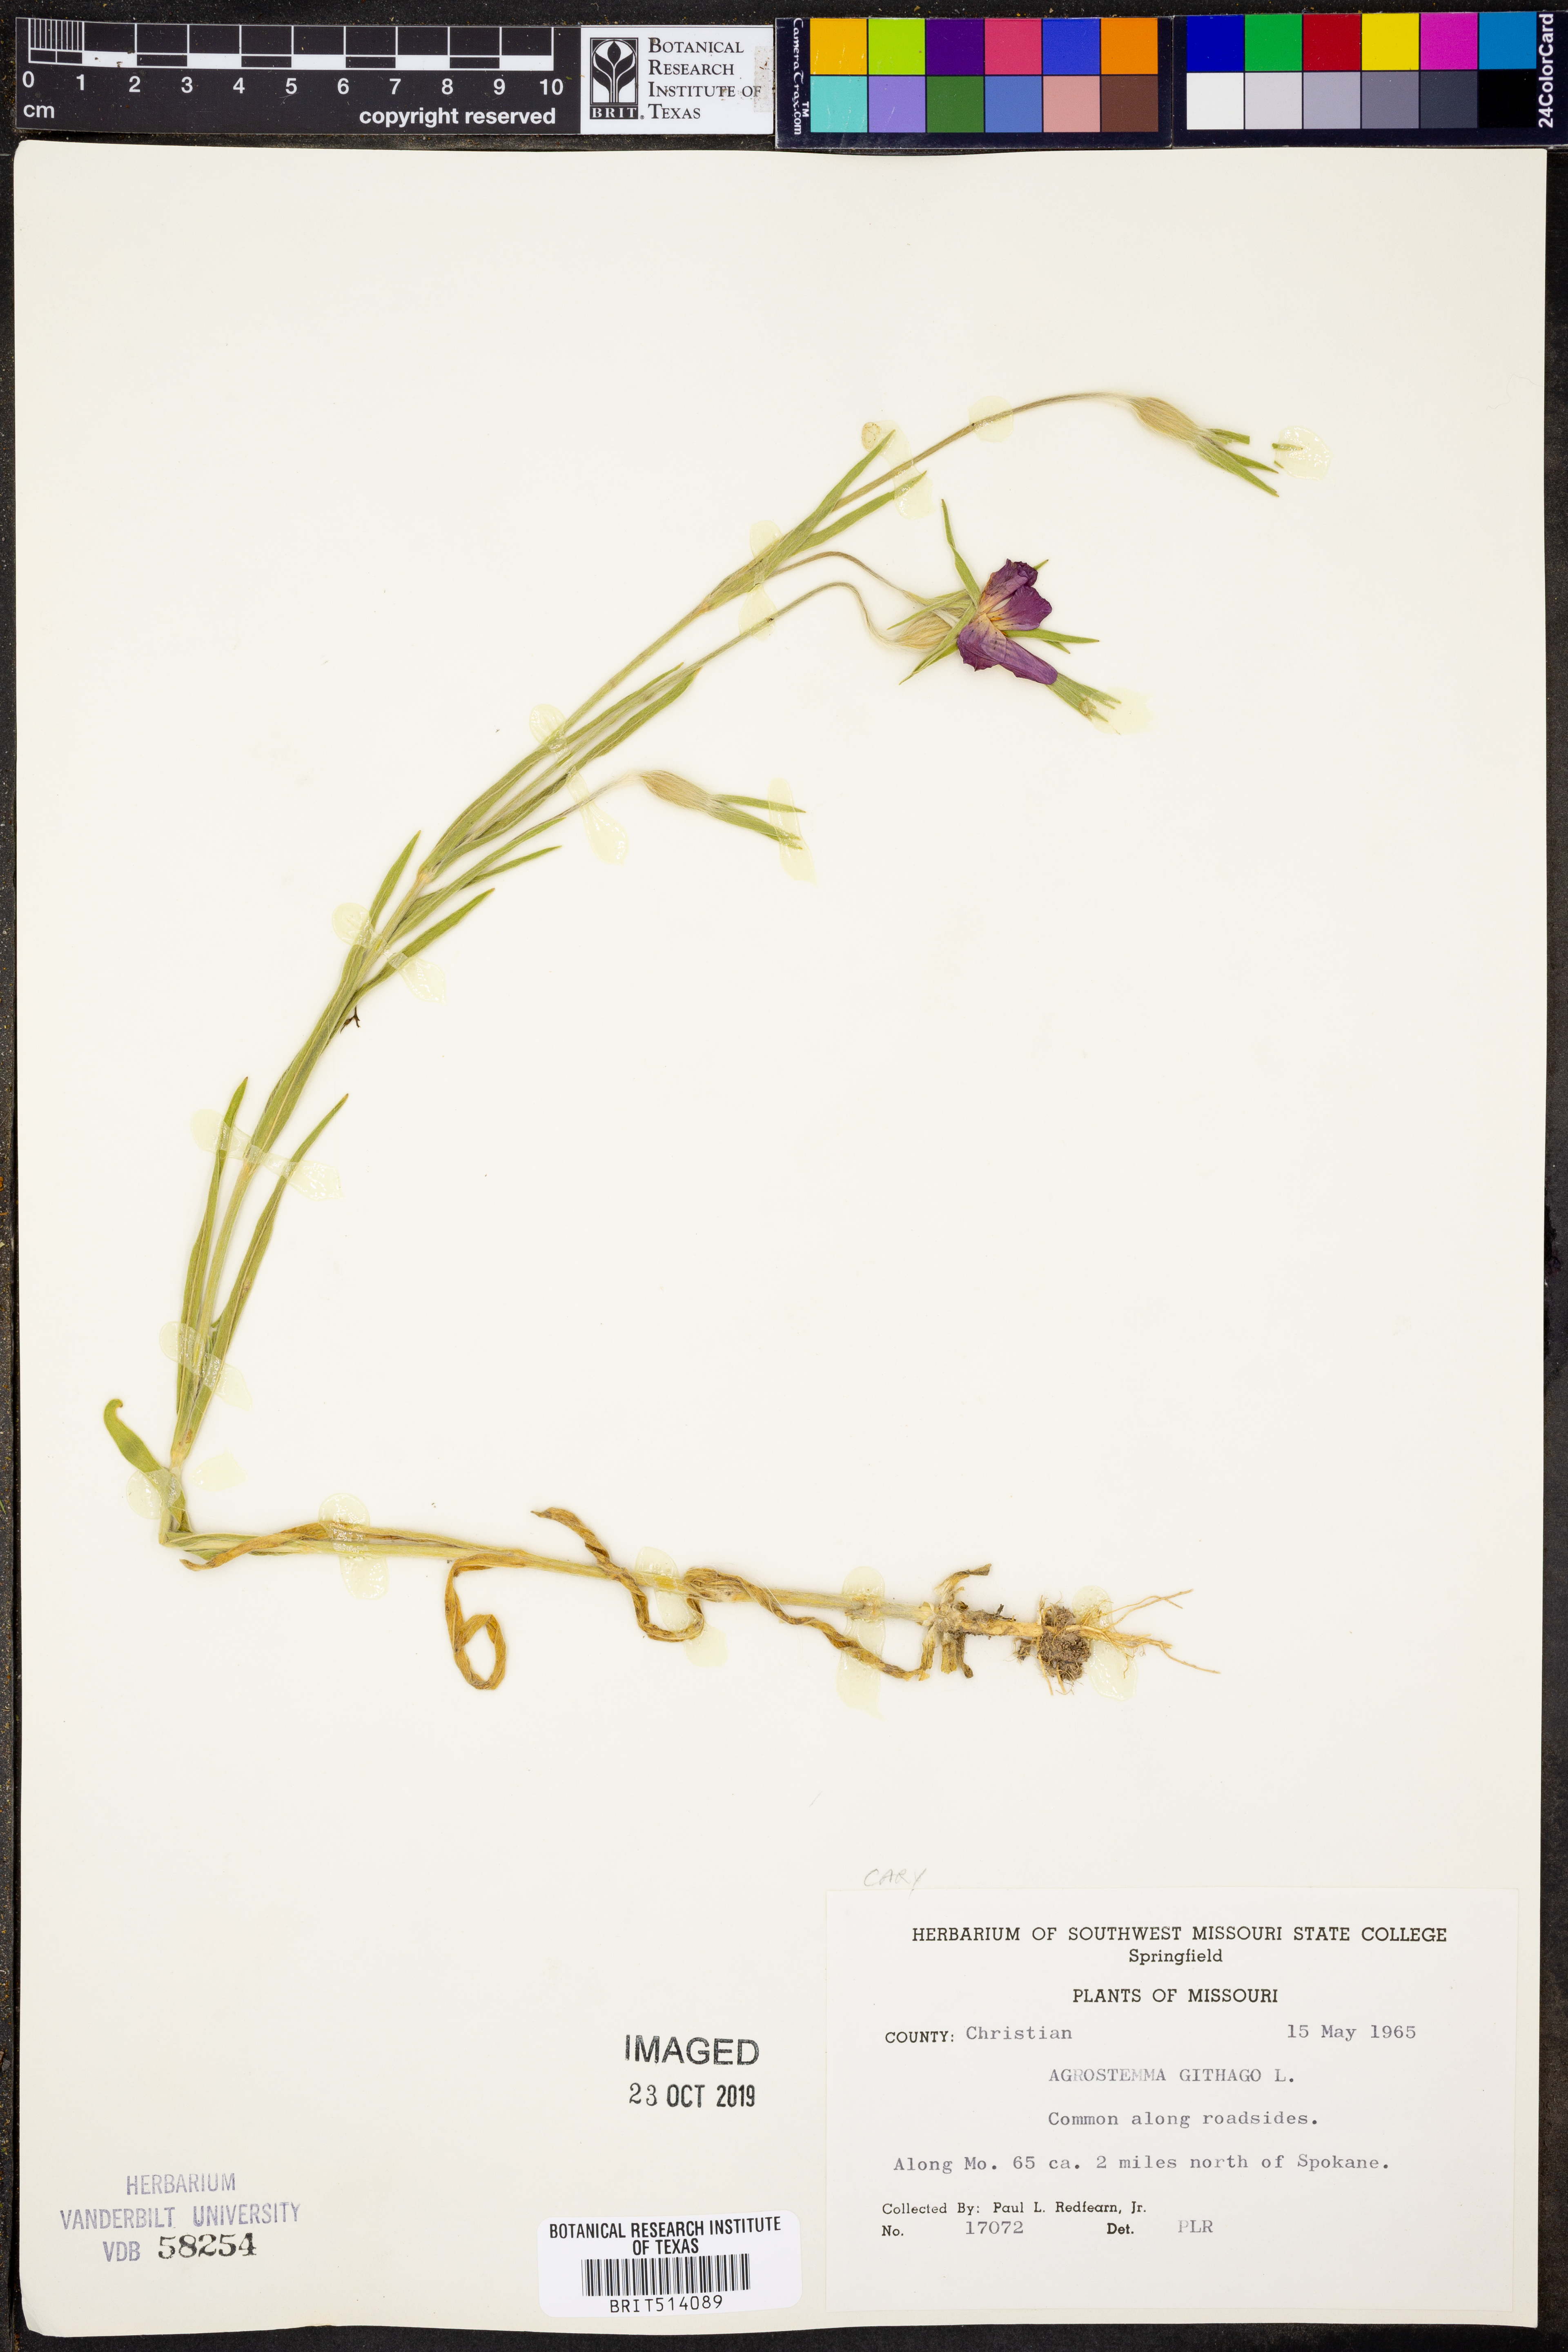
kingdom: Plantae
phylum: Tracheophyta
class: Magnoliopsida
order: Caryophyllales
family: Caryophyllaceae
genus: Agrostemma
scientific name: Agrostemma githago
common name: Common corncockle
